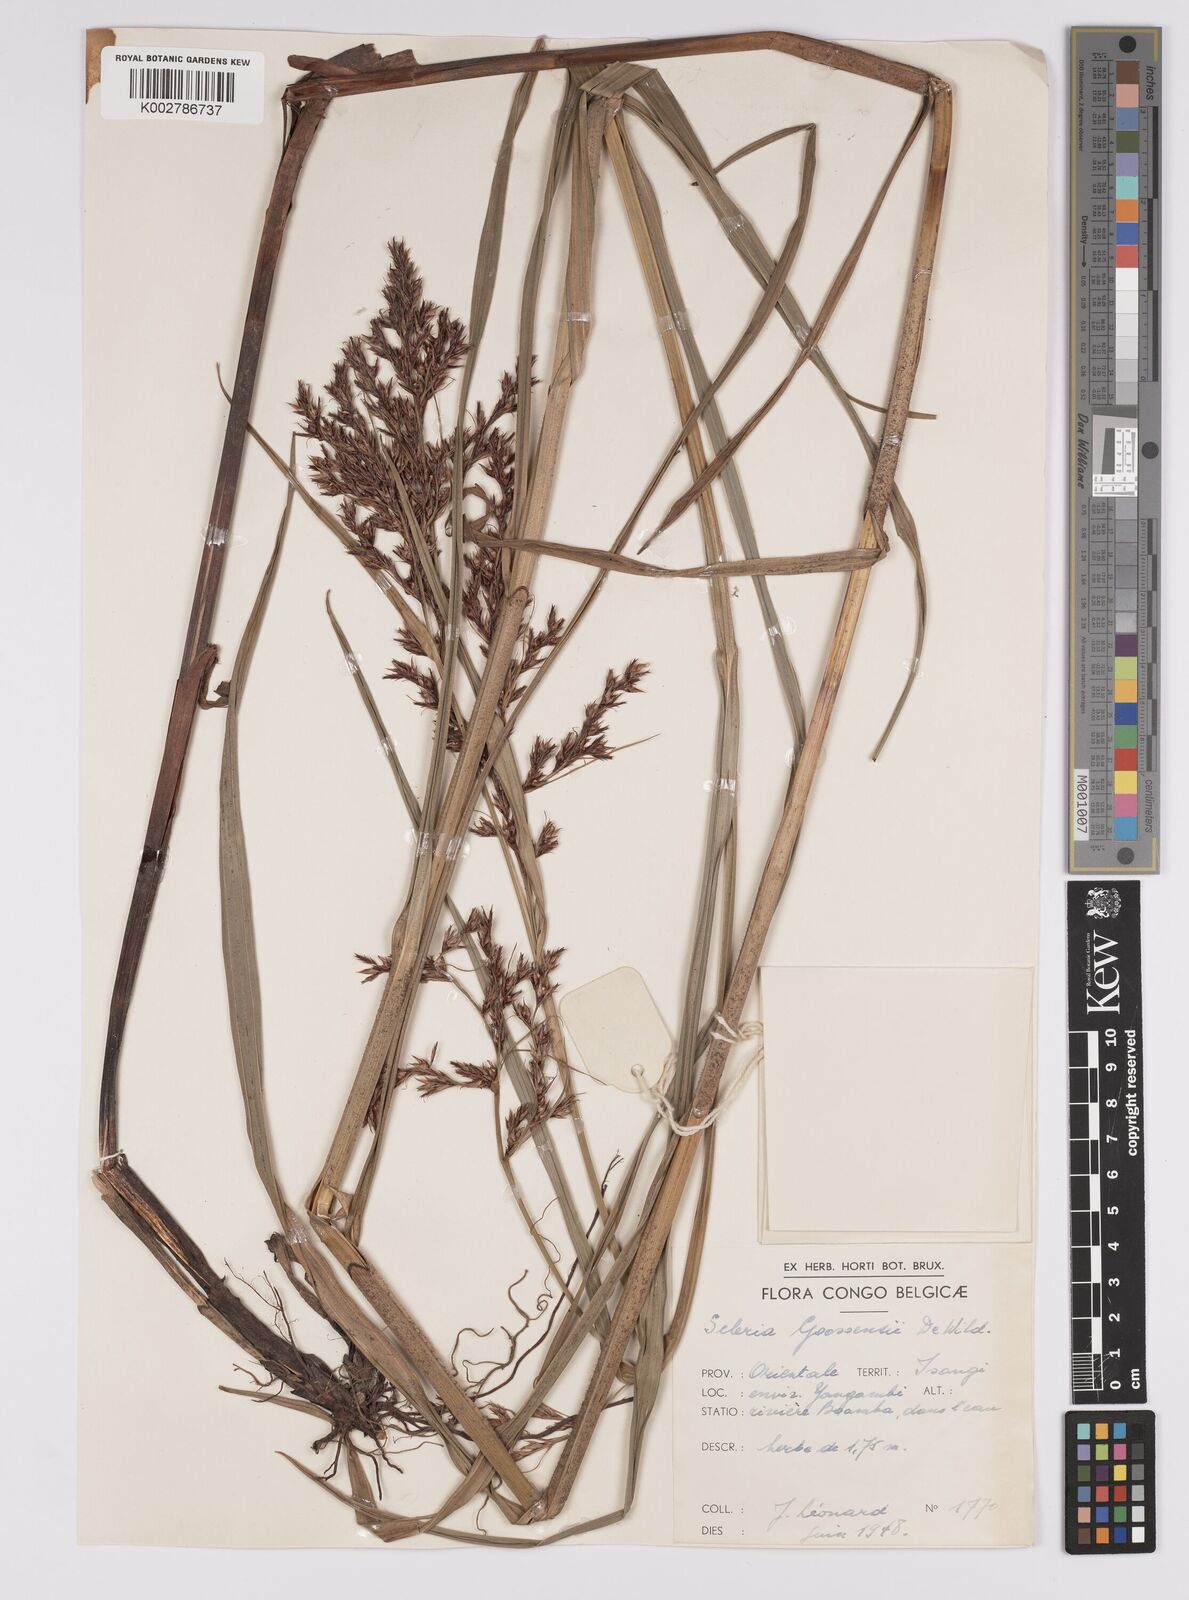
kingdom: Plantae
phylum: Tracheophyta
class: Liliopsida
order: Poales
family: Cyperaceae
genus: Scleria
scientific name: Scleria goossensii
